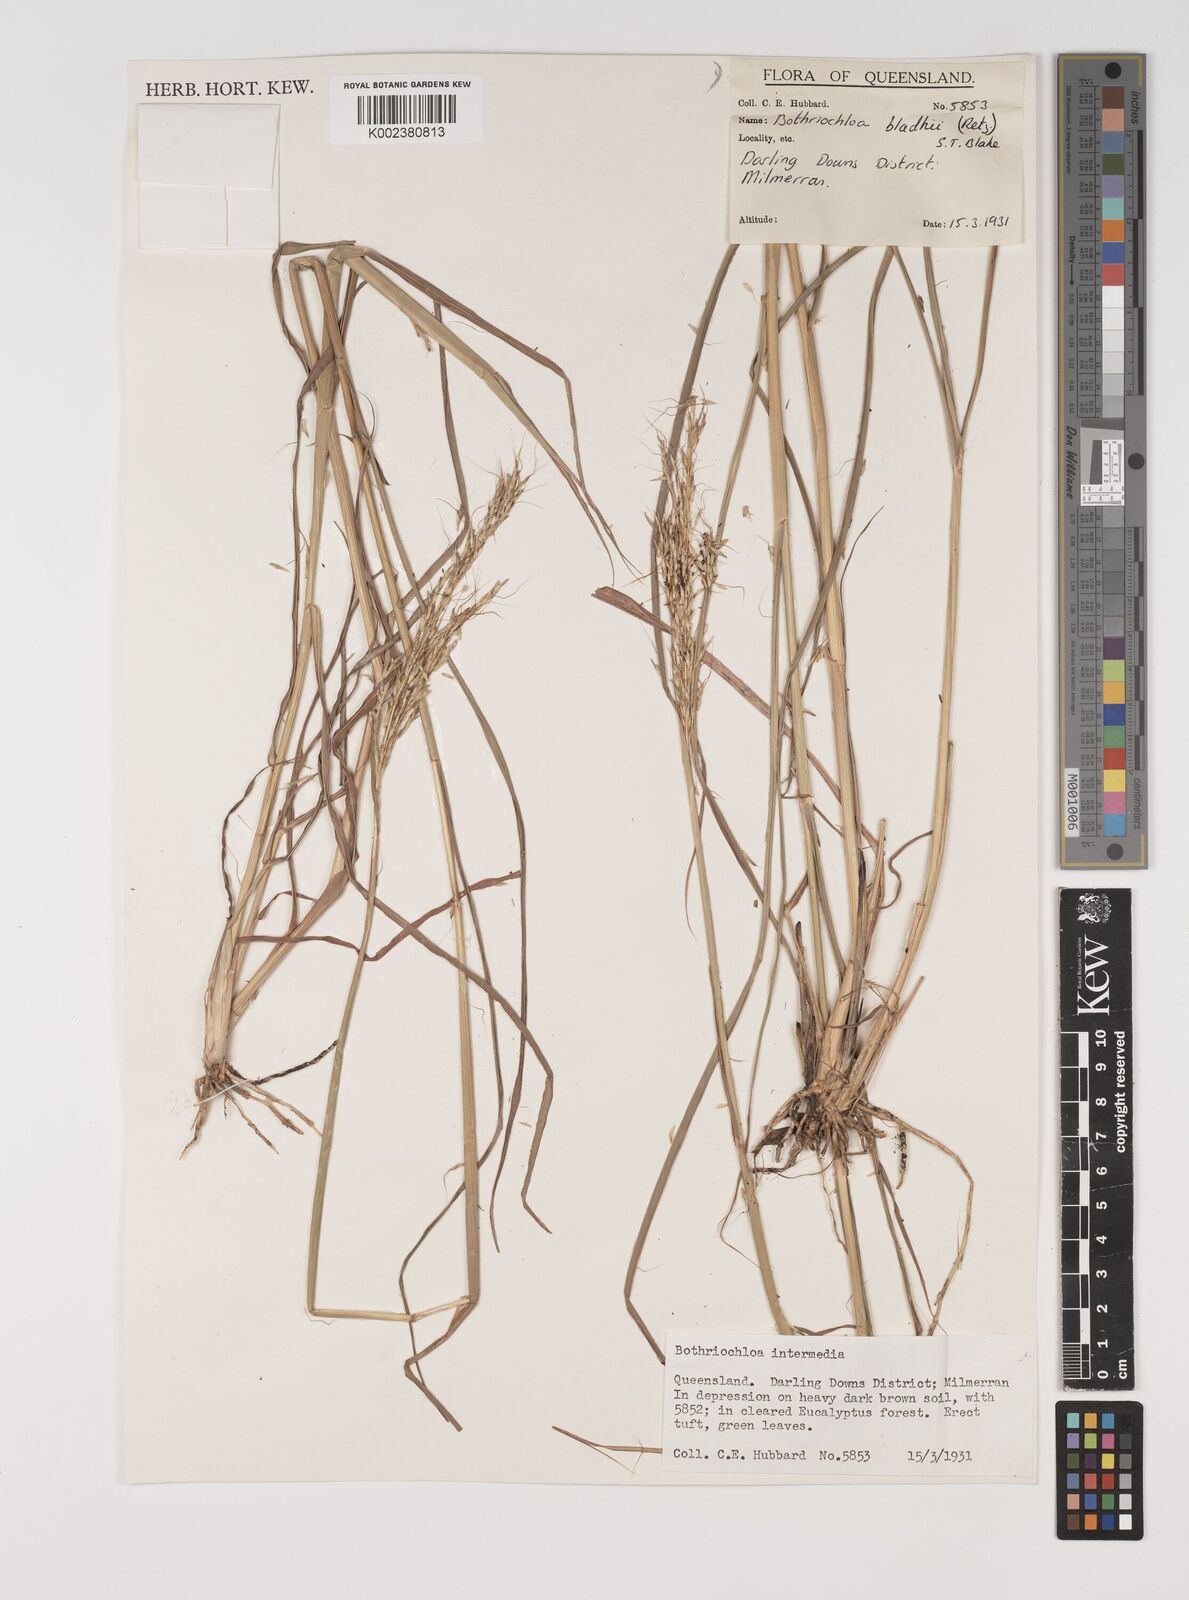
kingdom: Plantae
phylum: Tracheophyta
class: Liliopsida
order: Poales
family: Poaceae
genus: Bothriochloa
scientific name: Bothriochloa bladhii
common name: Caucasian bluestem
